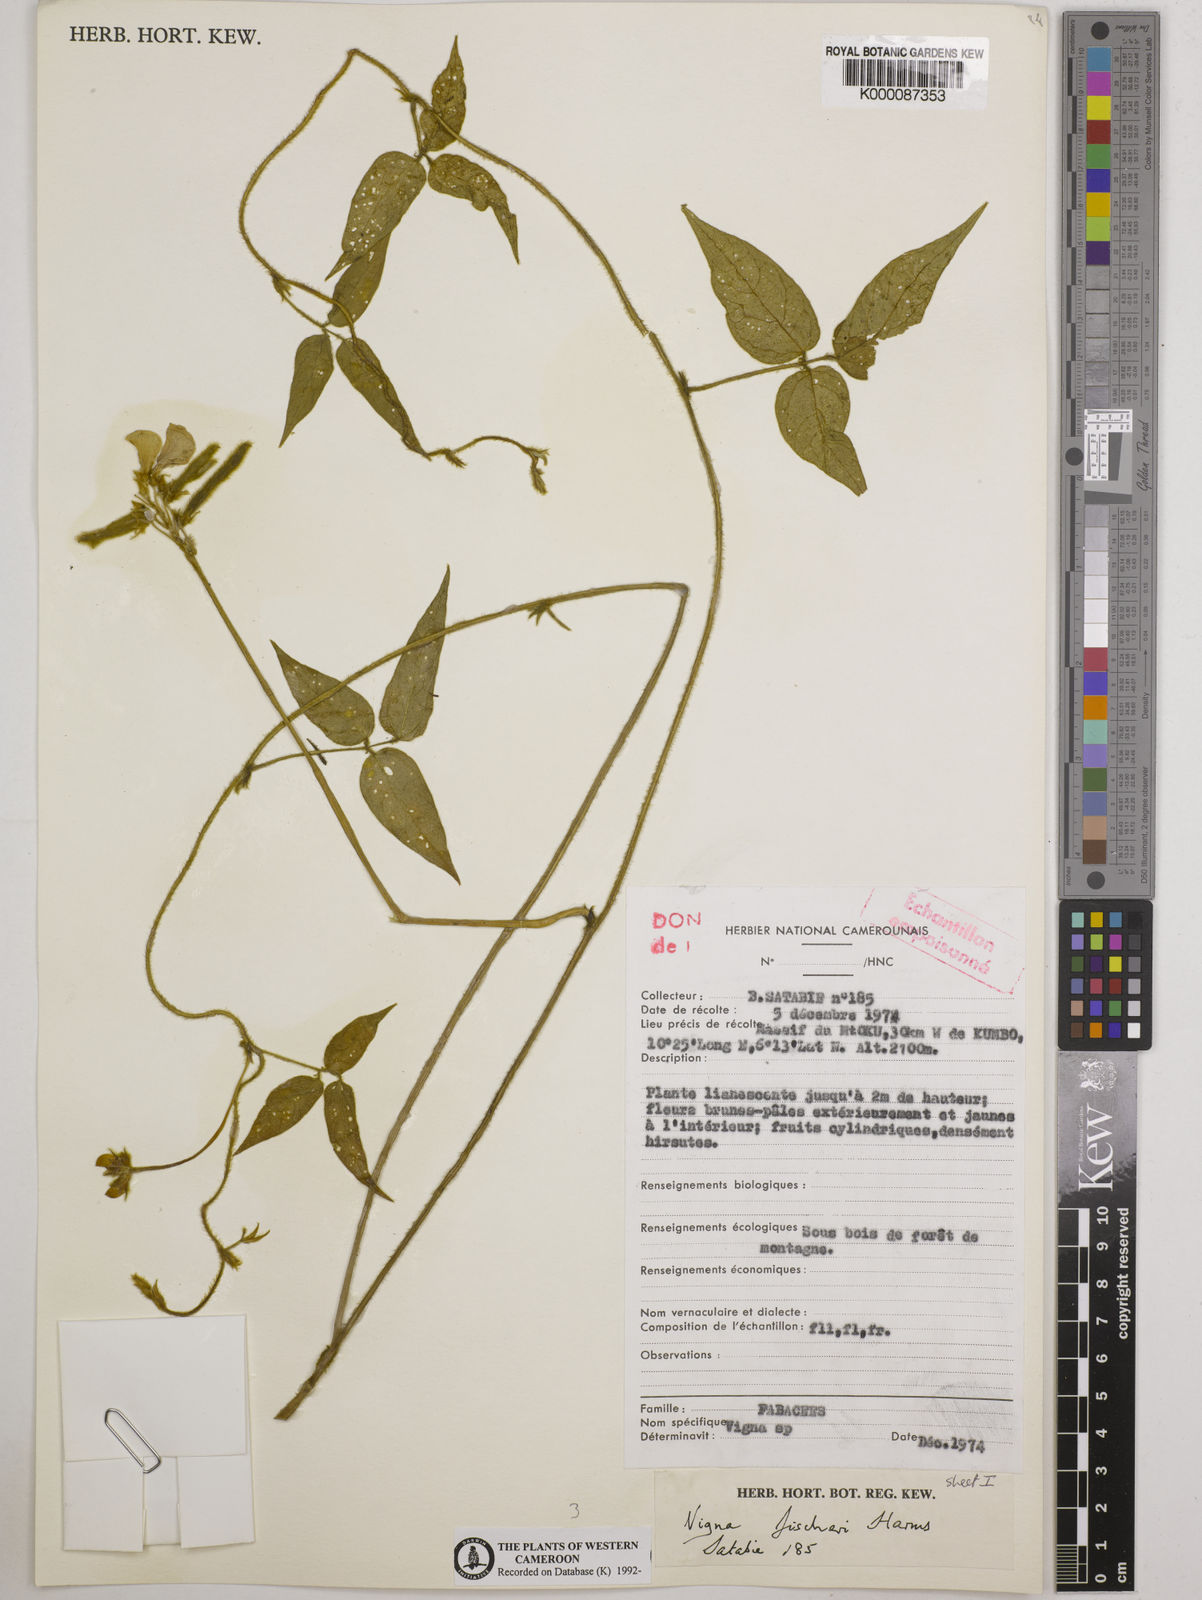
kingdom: Plantae
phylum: Tracheophyta
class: Magnoliopsida
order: Fabales
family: Fabaceae
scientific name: Fabaceae
